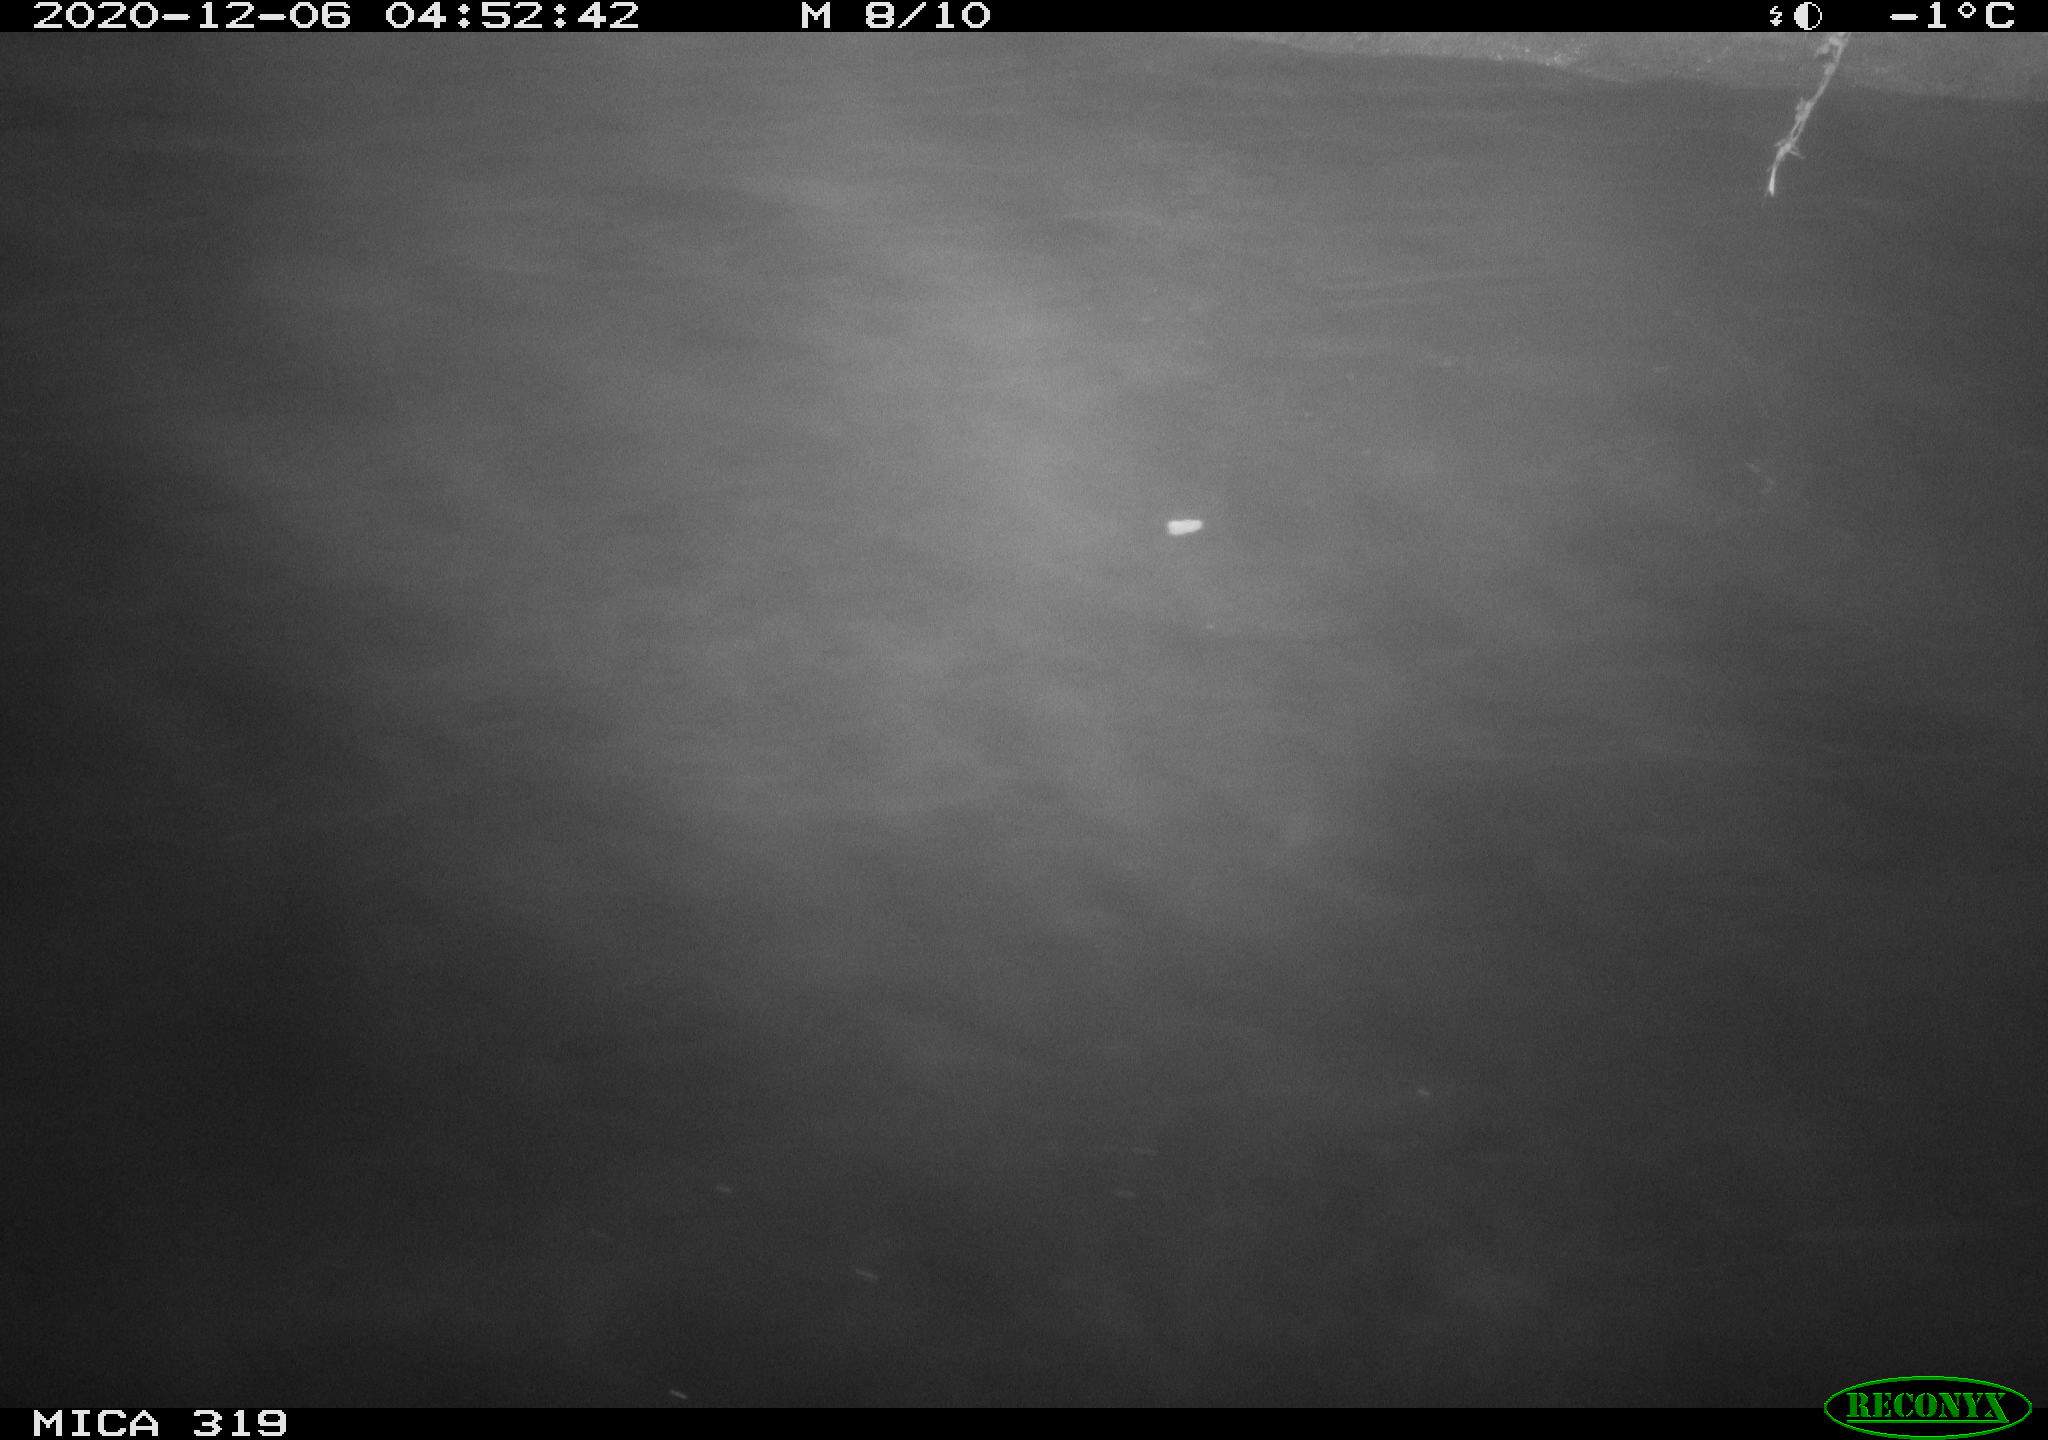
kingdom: Animalia
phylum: Chordata
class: Aves
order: Anseriformes
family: Anatidae
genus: Anas
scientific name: Anas platyrhynchos
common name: Mallard
